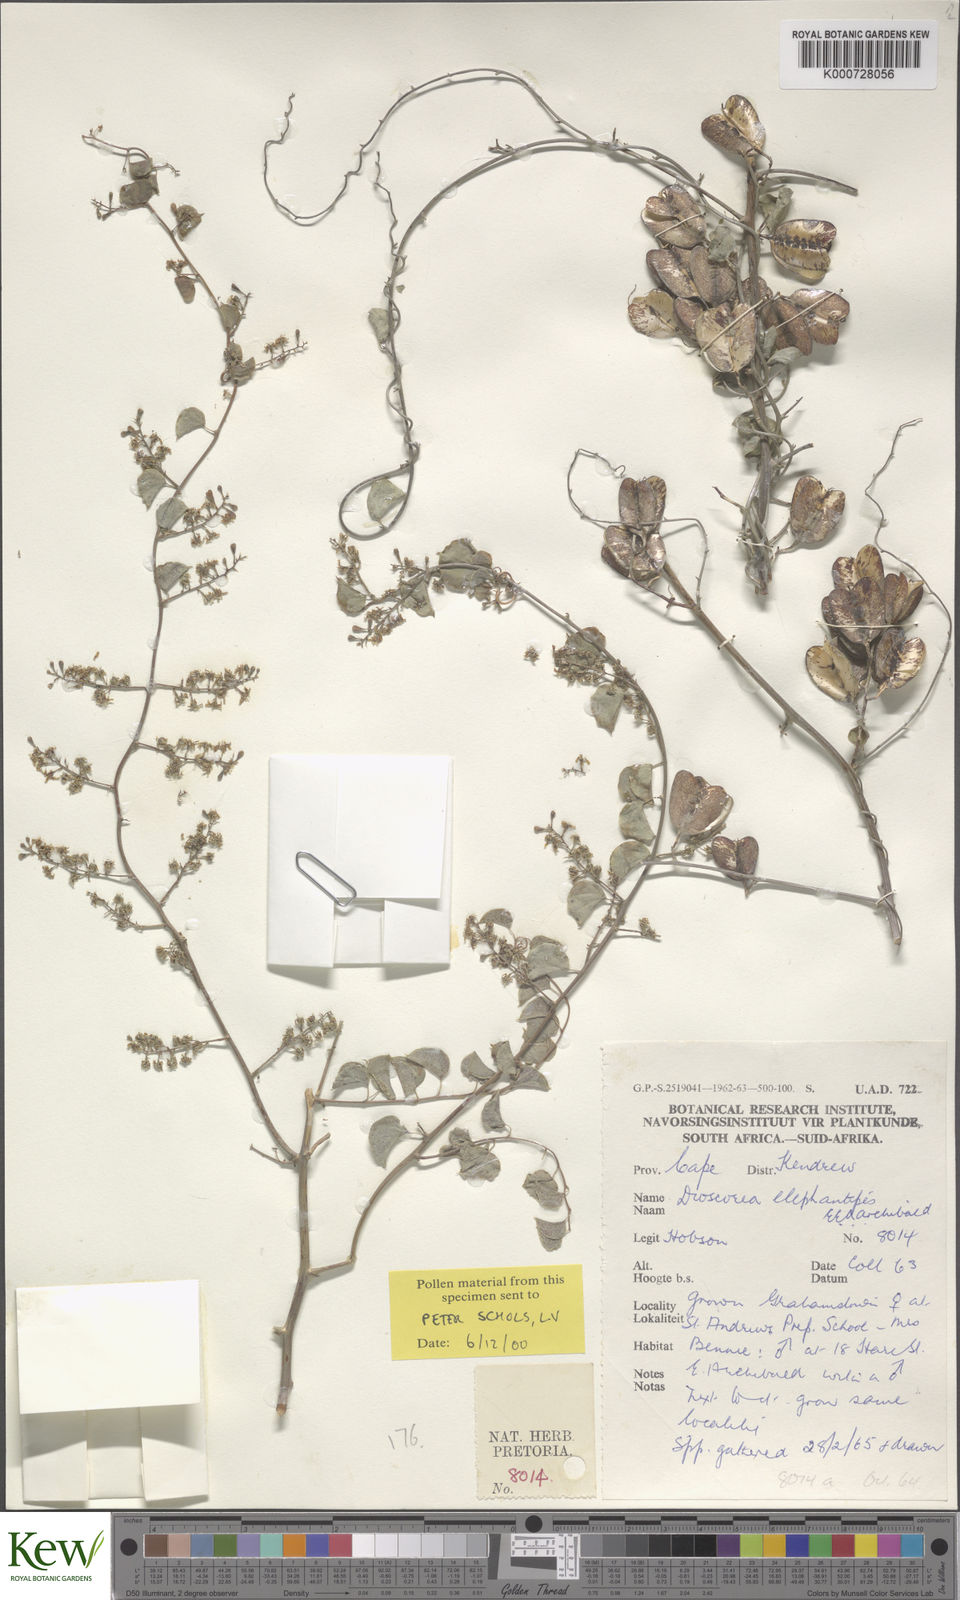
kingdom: Plantae
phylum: Tracheophyta
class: Liliopsida
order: Dioscoreales
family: Dioscoreaceae
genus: Dioscorea
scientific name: Dioscorea
